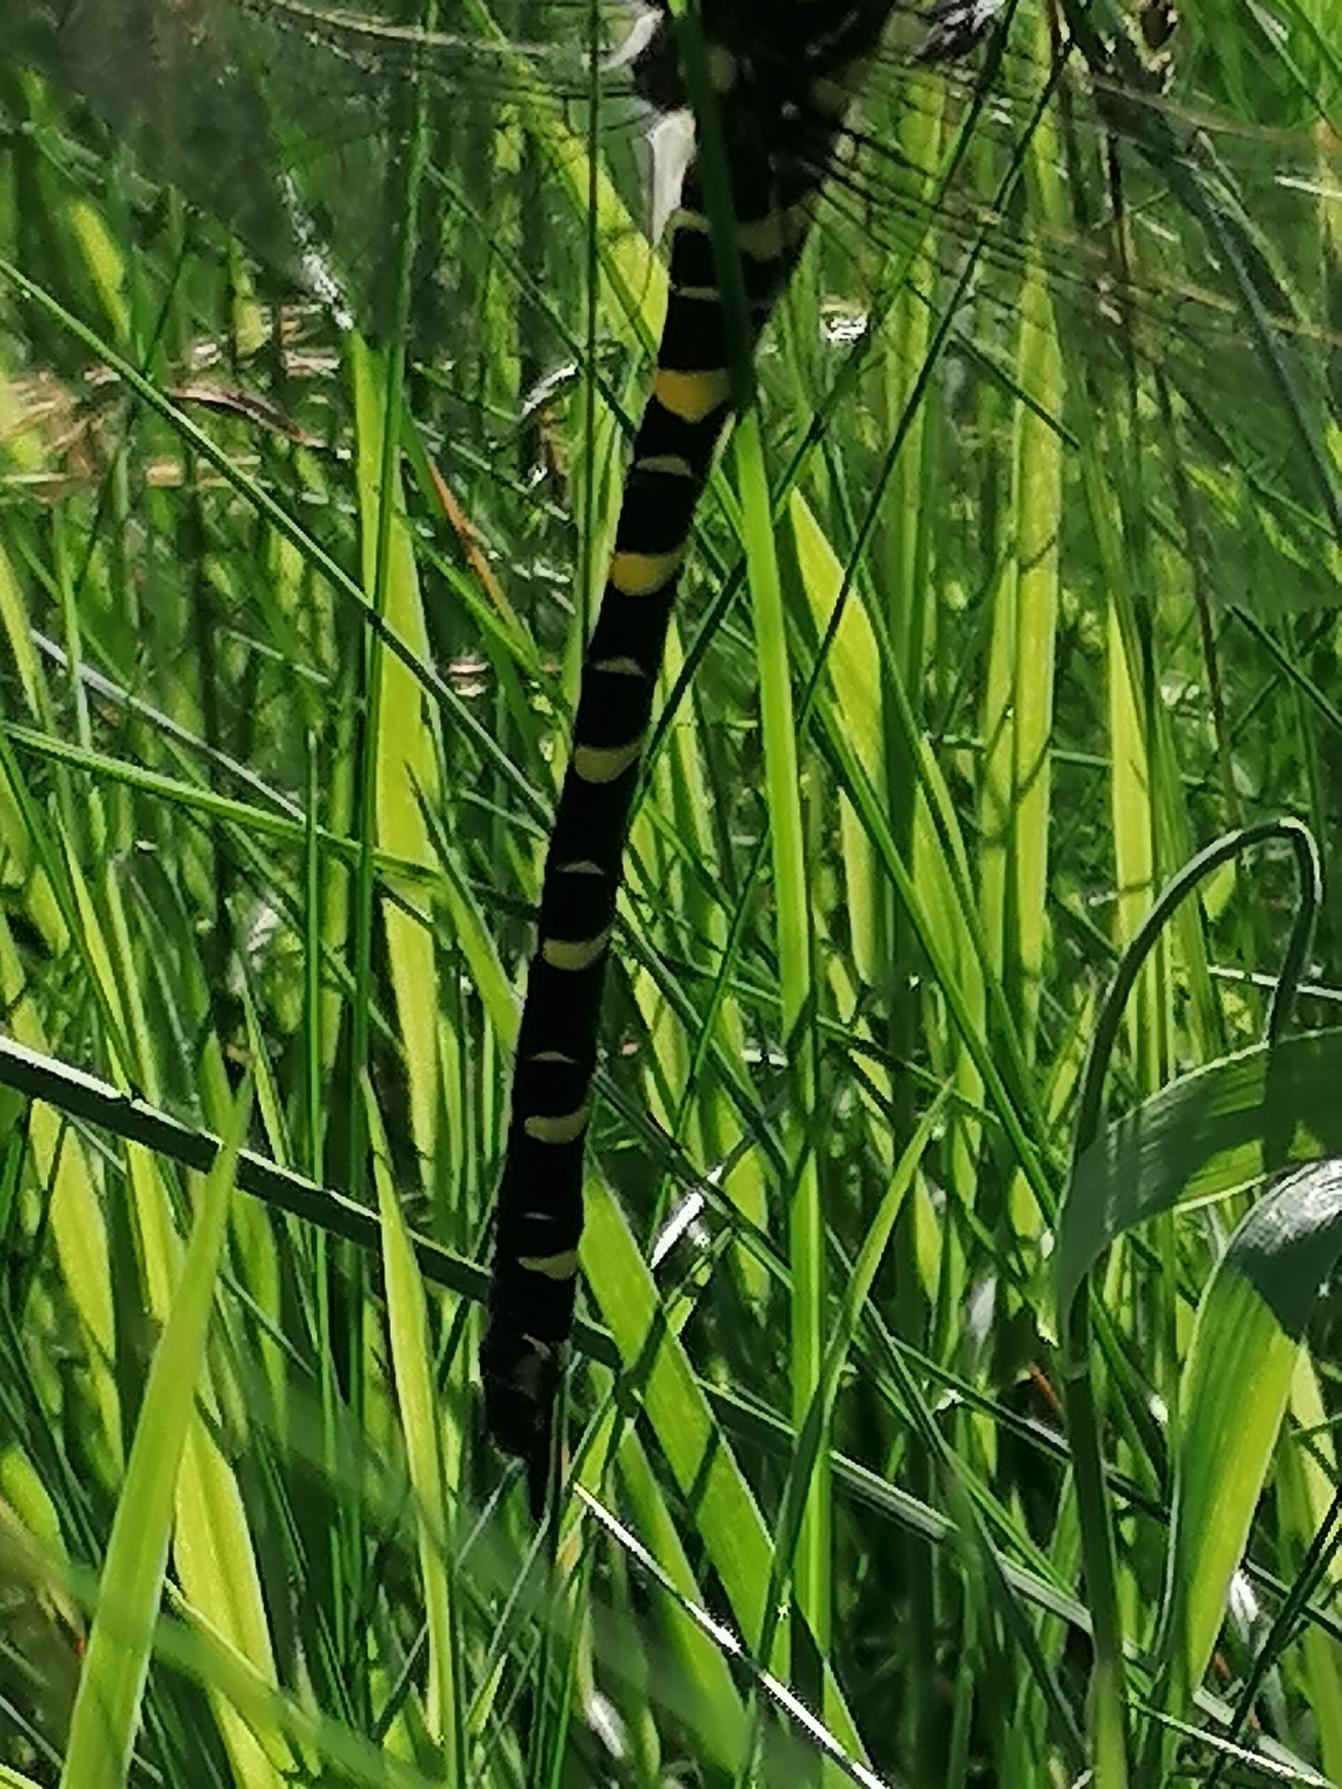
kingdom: Animalia
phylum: Arthropoda
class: Insecta
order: Odonata
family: Cordulegastridae
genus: Cordulegaster
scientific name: Cordulegaster boltonii
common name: Kongeguldsmed
